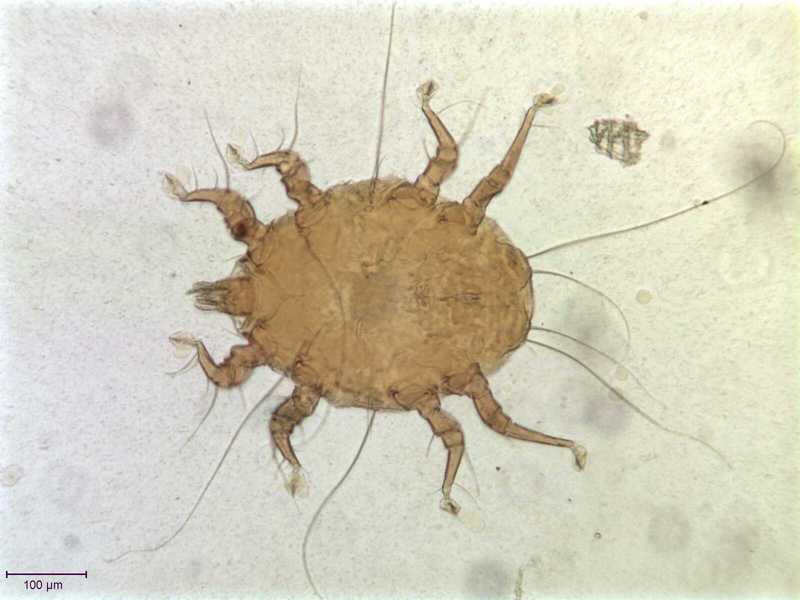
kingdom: Animalia
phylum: Arthropoda
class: Arachnida
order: Sarcoptiformes
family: Canestriniidae
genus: Canestrinia
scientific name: Canestrinia
